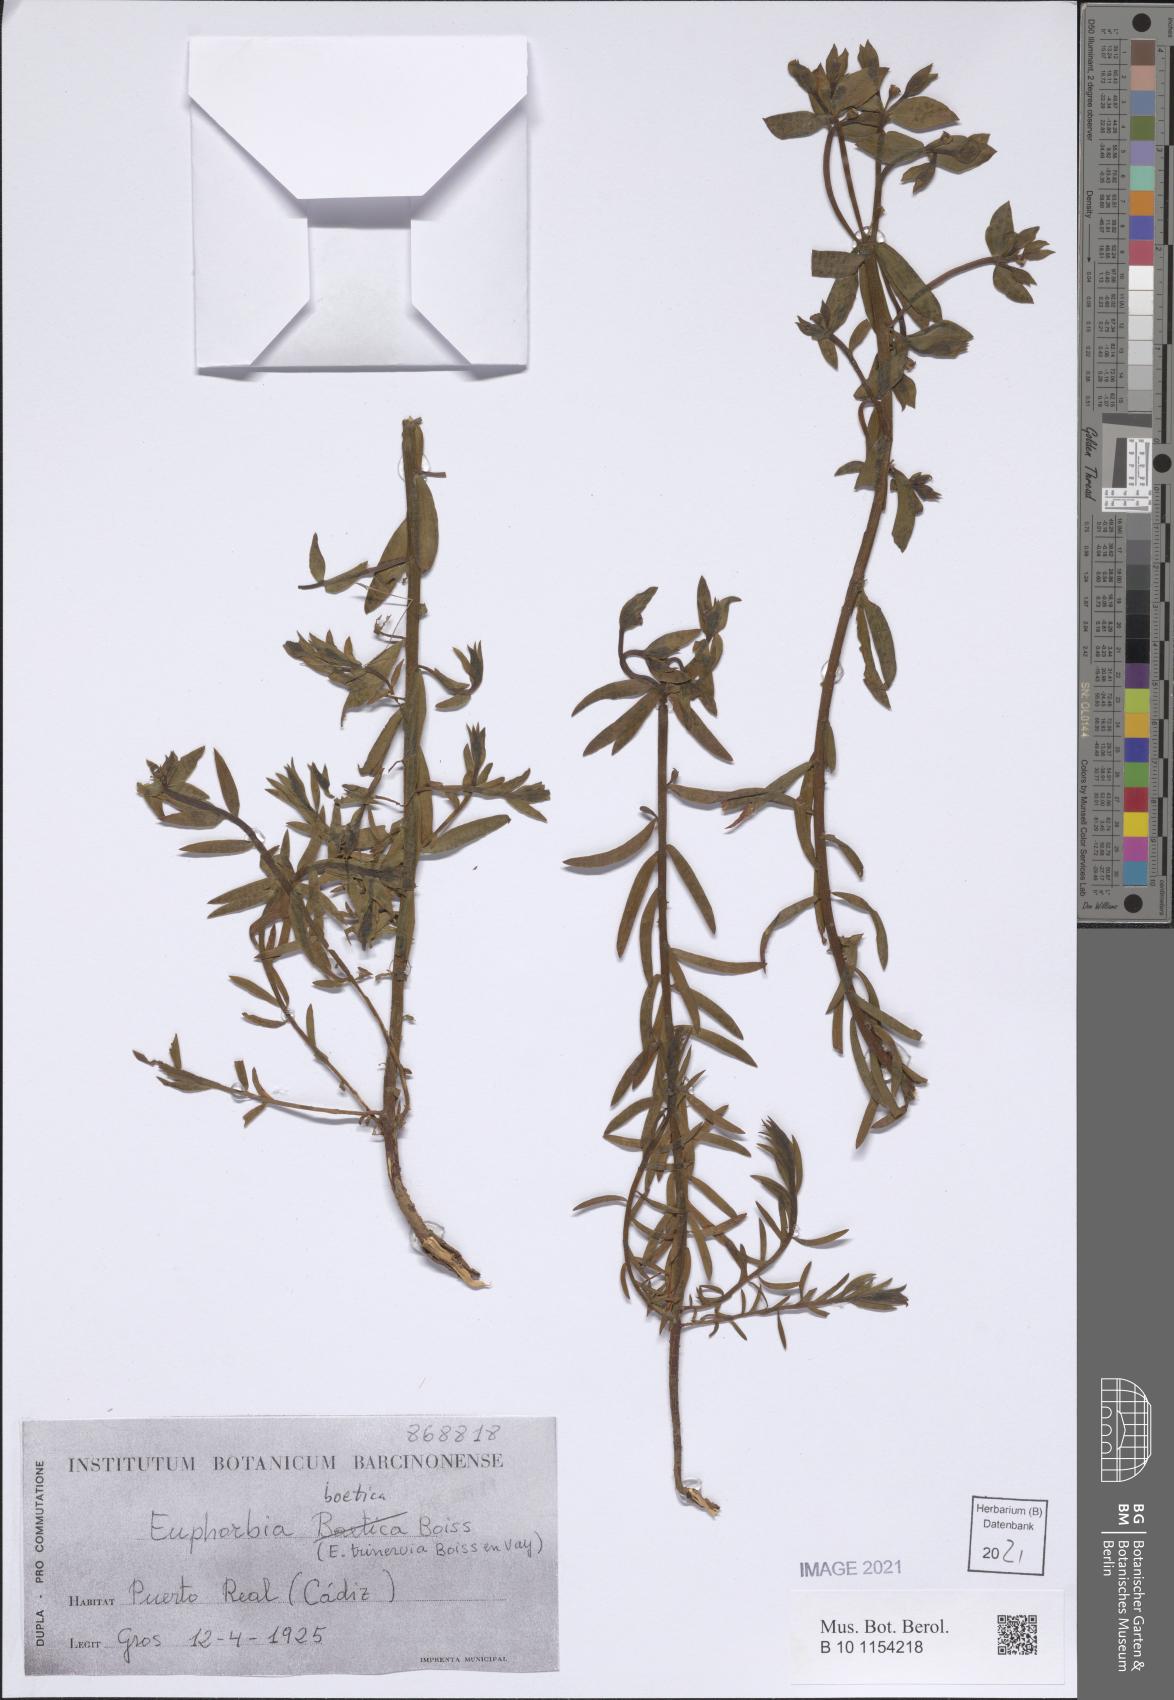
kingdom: Plantae
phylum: Tracheophyta
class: Magnoliopsida
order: Malpighiales
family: Euphorbiaceae
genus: Euphorbia
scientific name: Euphorbia boetica
